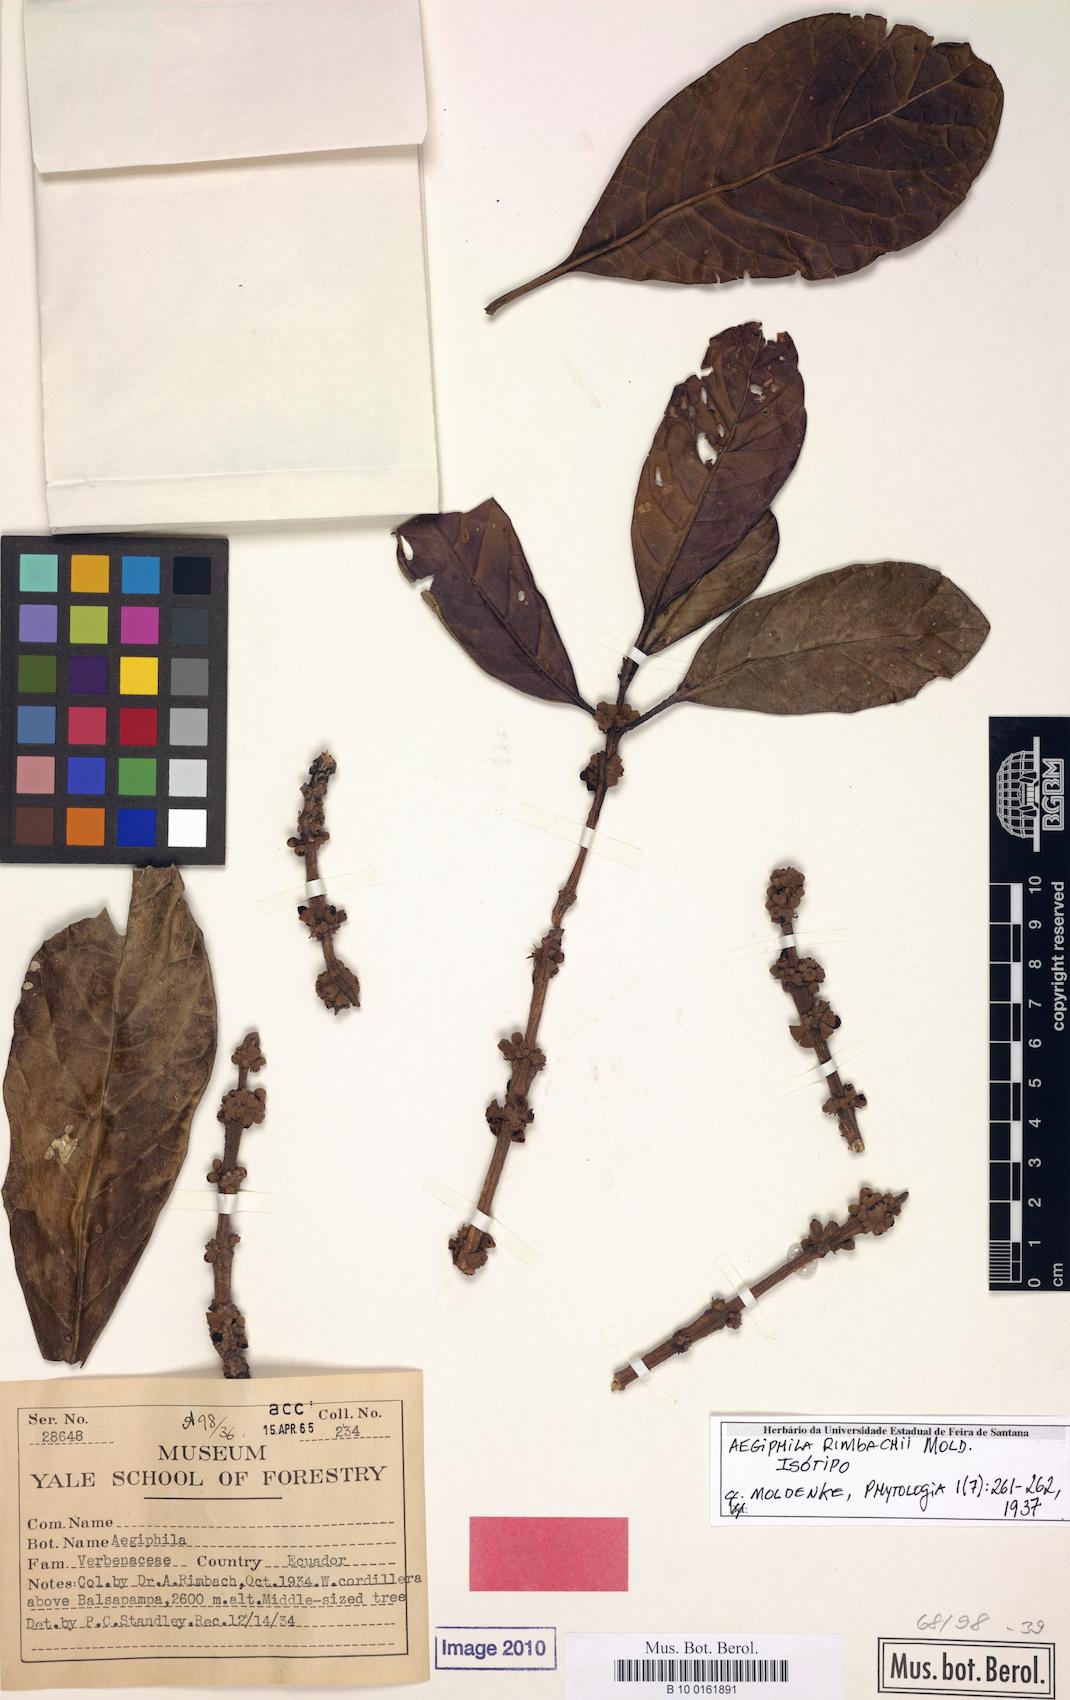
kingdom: Plantae
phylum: Tracheophyta
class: Magnoliopsida
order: Lamiales
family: Lamiaceae
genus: Aegiphila
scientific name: Aegiphila rimbachii
